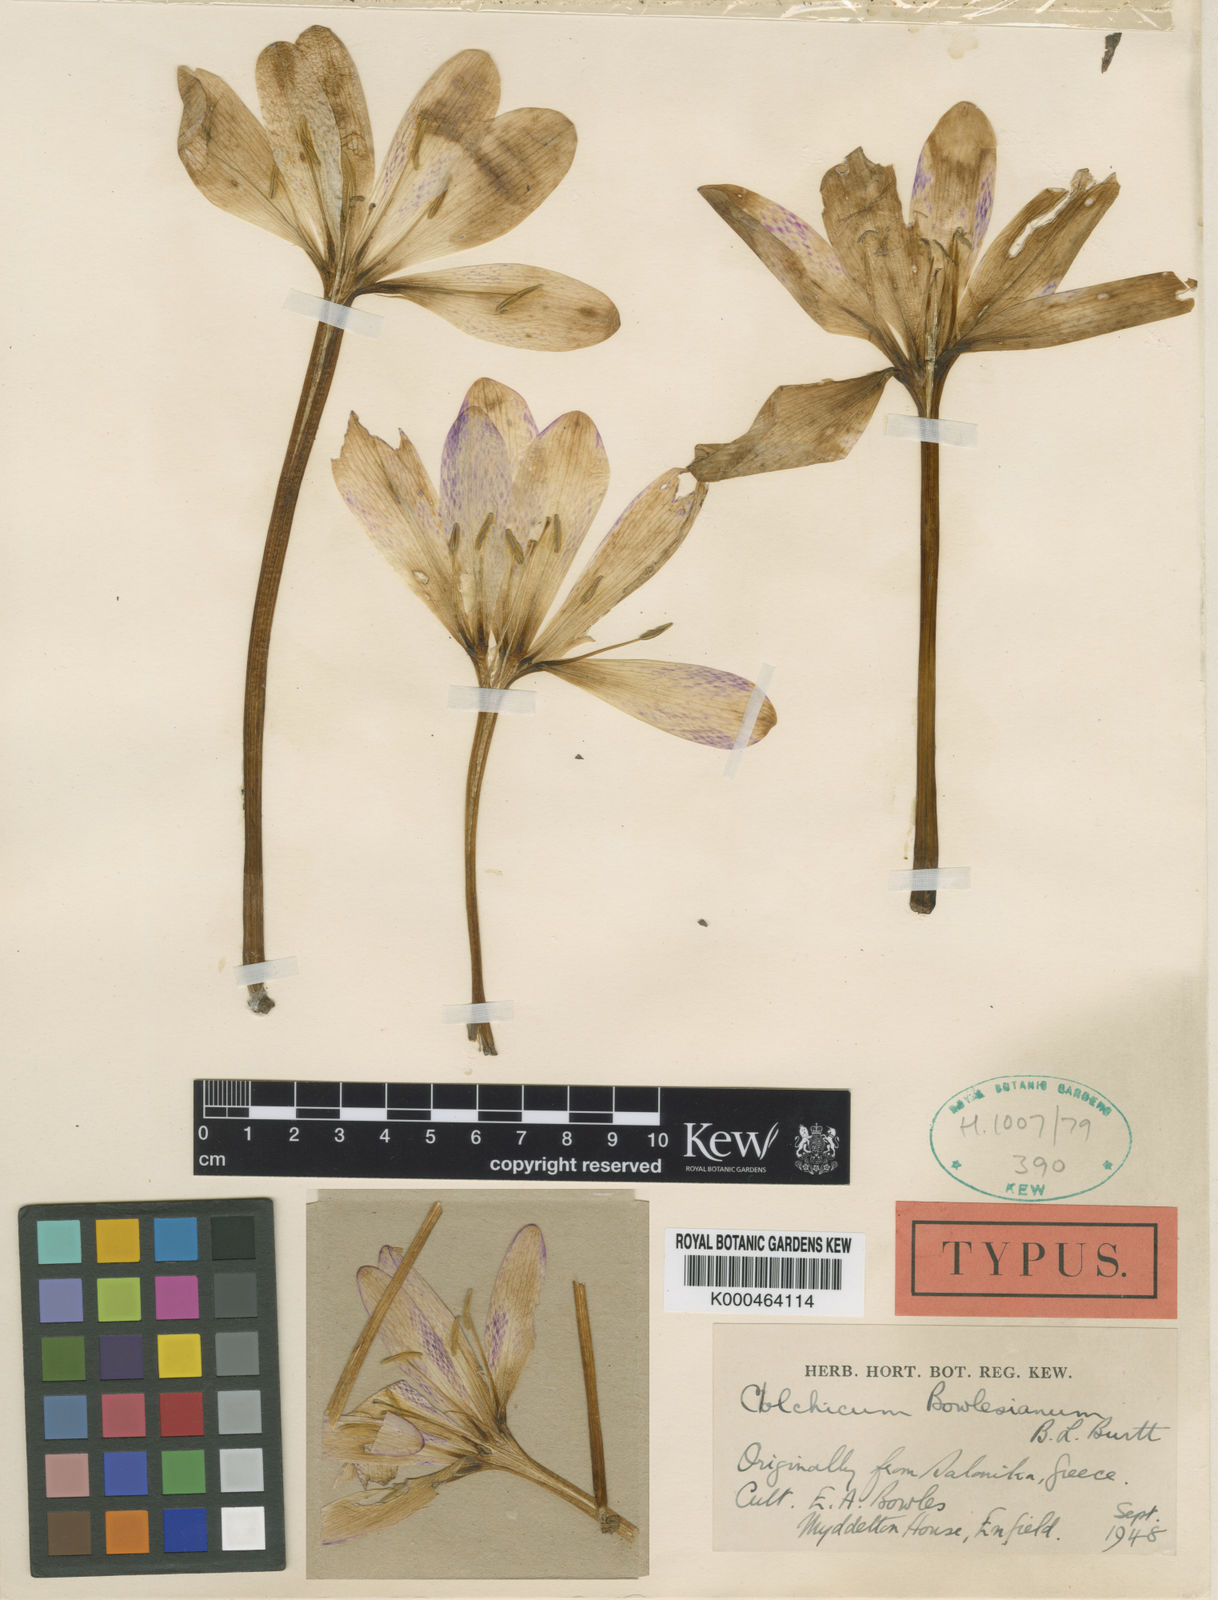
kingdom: Plantae
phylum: Tracheophyta
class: Liliopsida
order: Liliales
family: Colchicaceae
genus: Colchicum
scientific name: Colchicum bivonae
